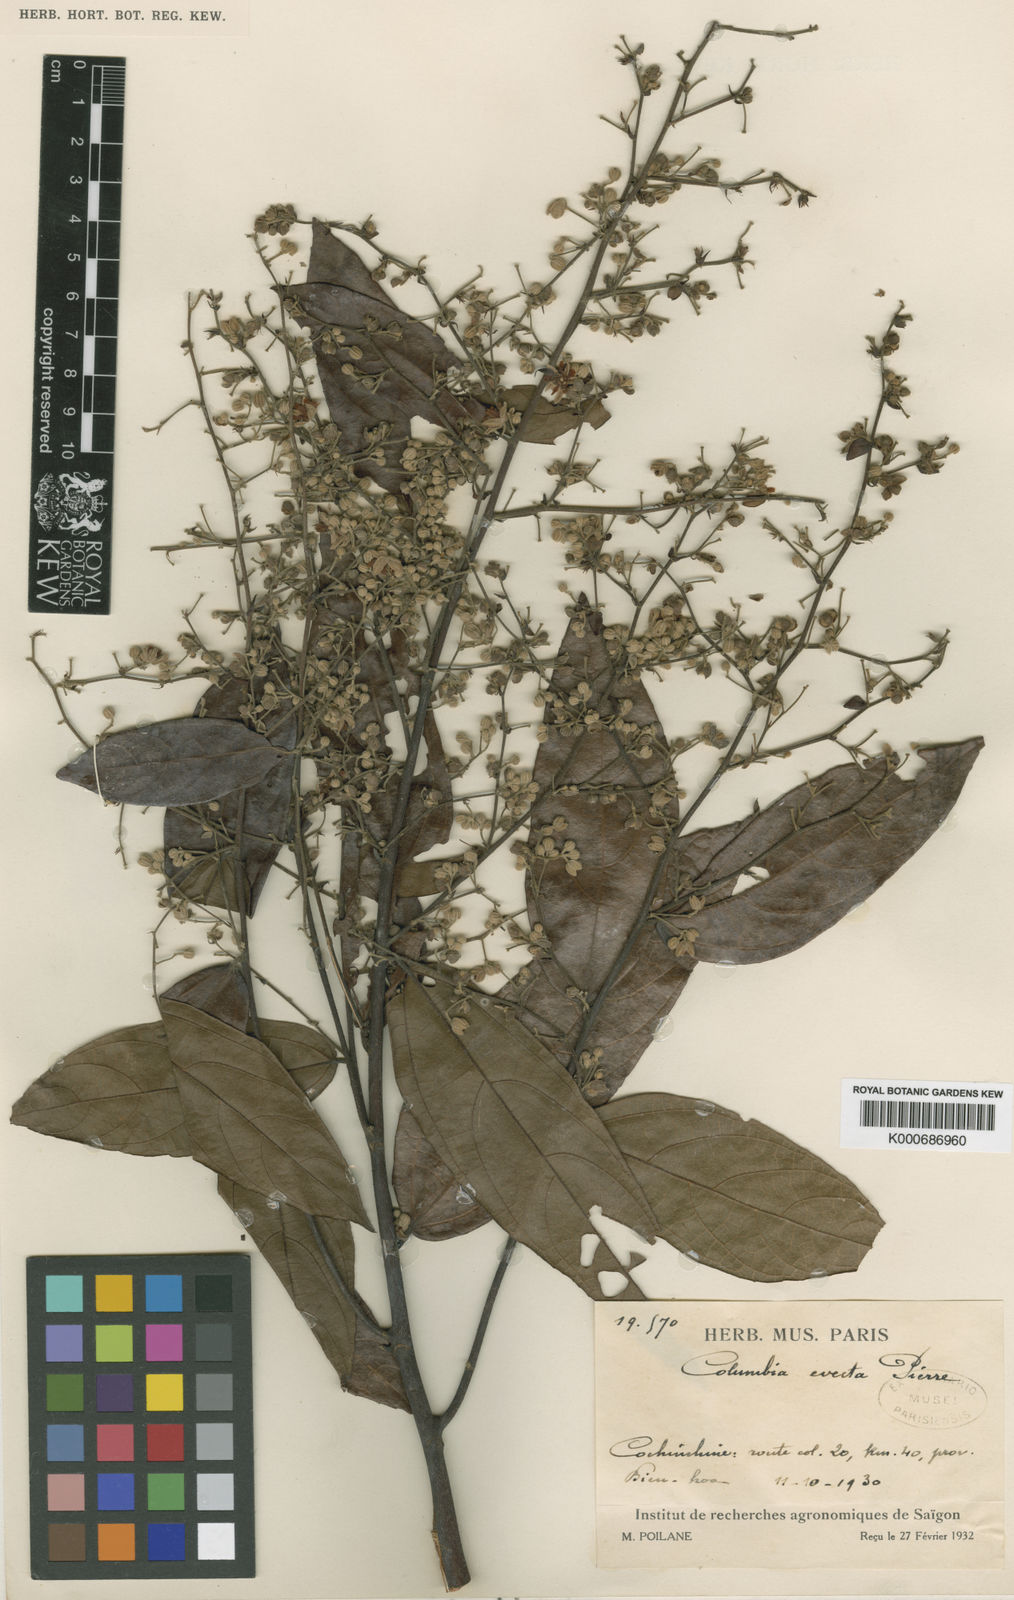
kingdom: Plantae
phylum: Tracheophyta
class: Magnoliopsida
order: Malvales
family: Malvaceae
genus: Colona
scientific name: Colona
